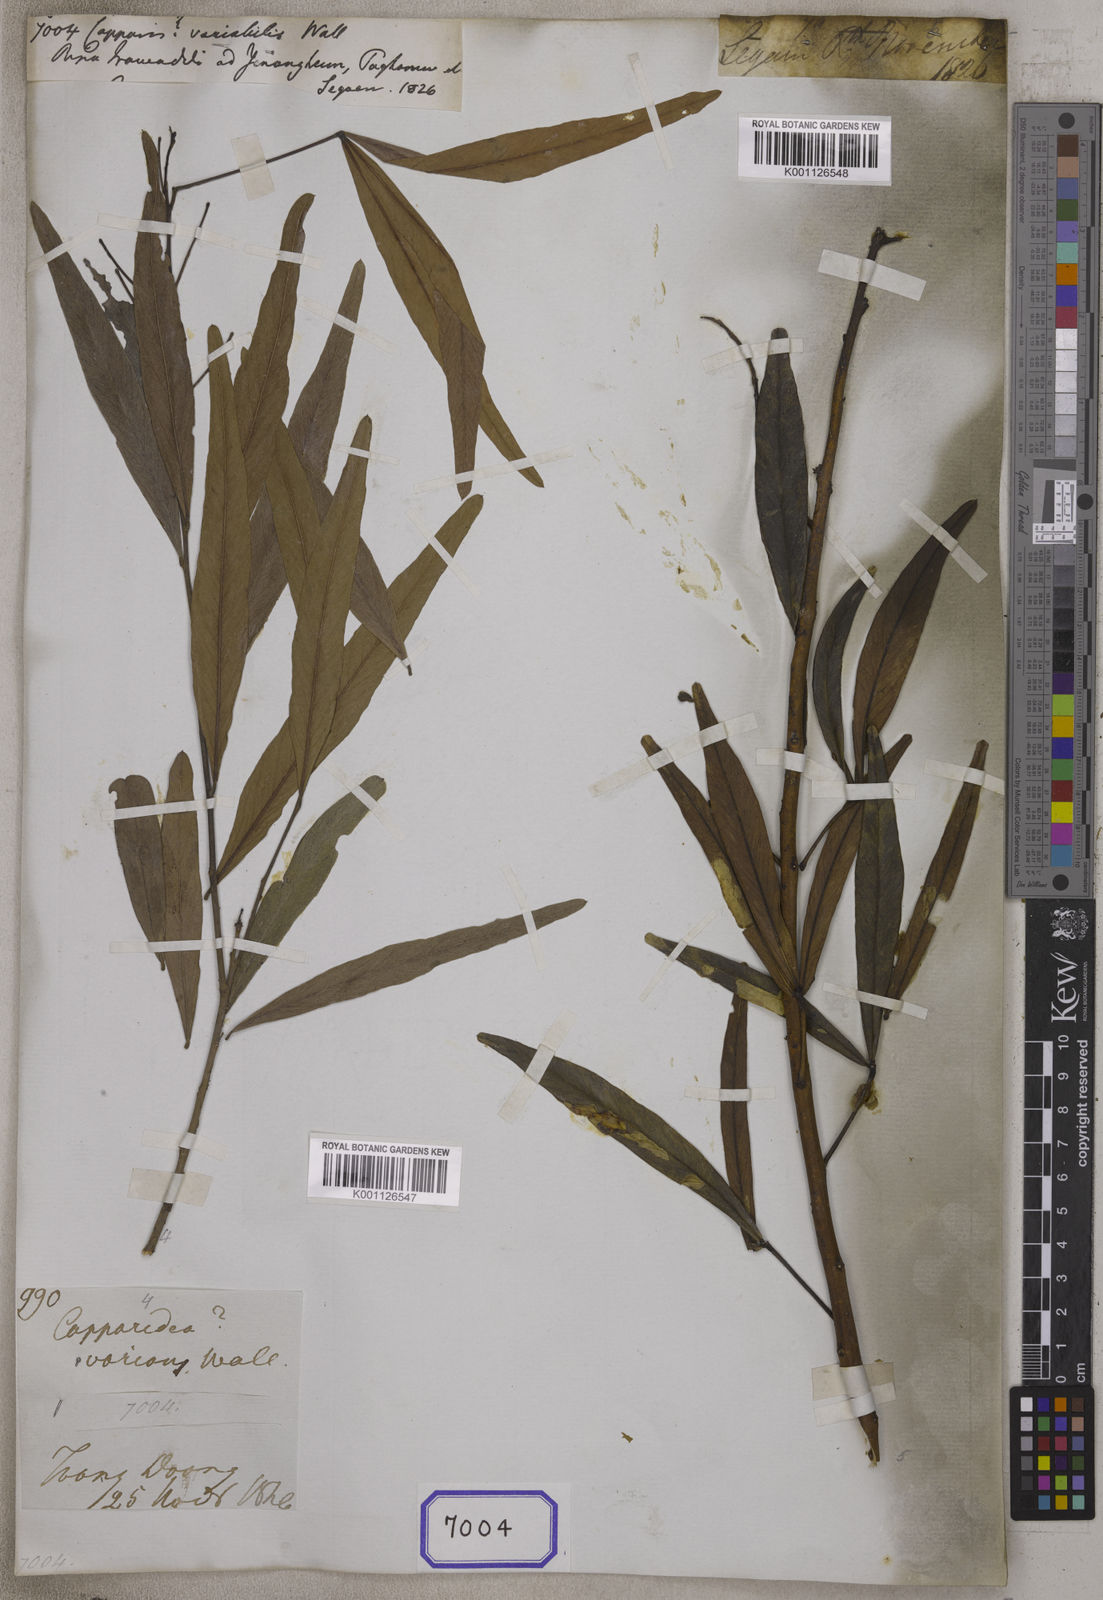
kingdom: Plantae
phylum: Tracheophyta
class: Magnoliopsida
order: Brassicales
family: Capparaceae
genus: Capparis
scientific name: Capparis
